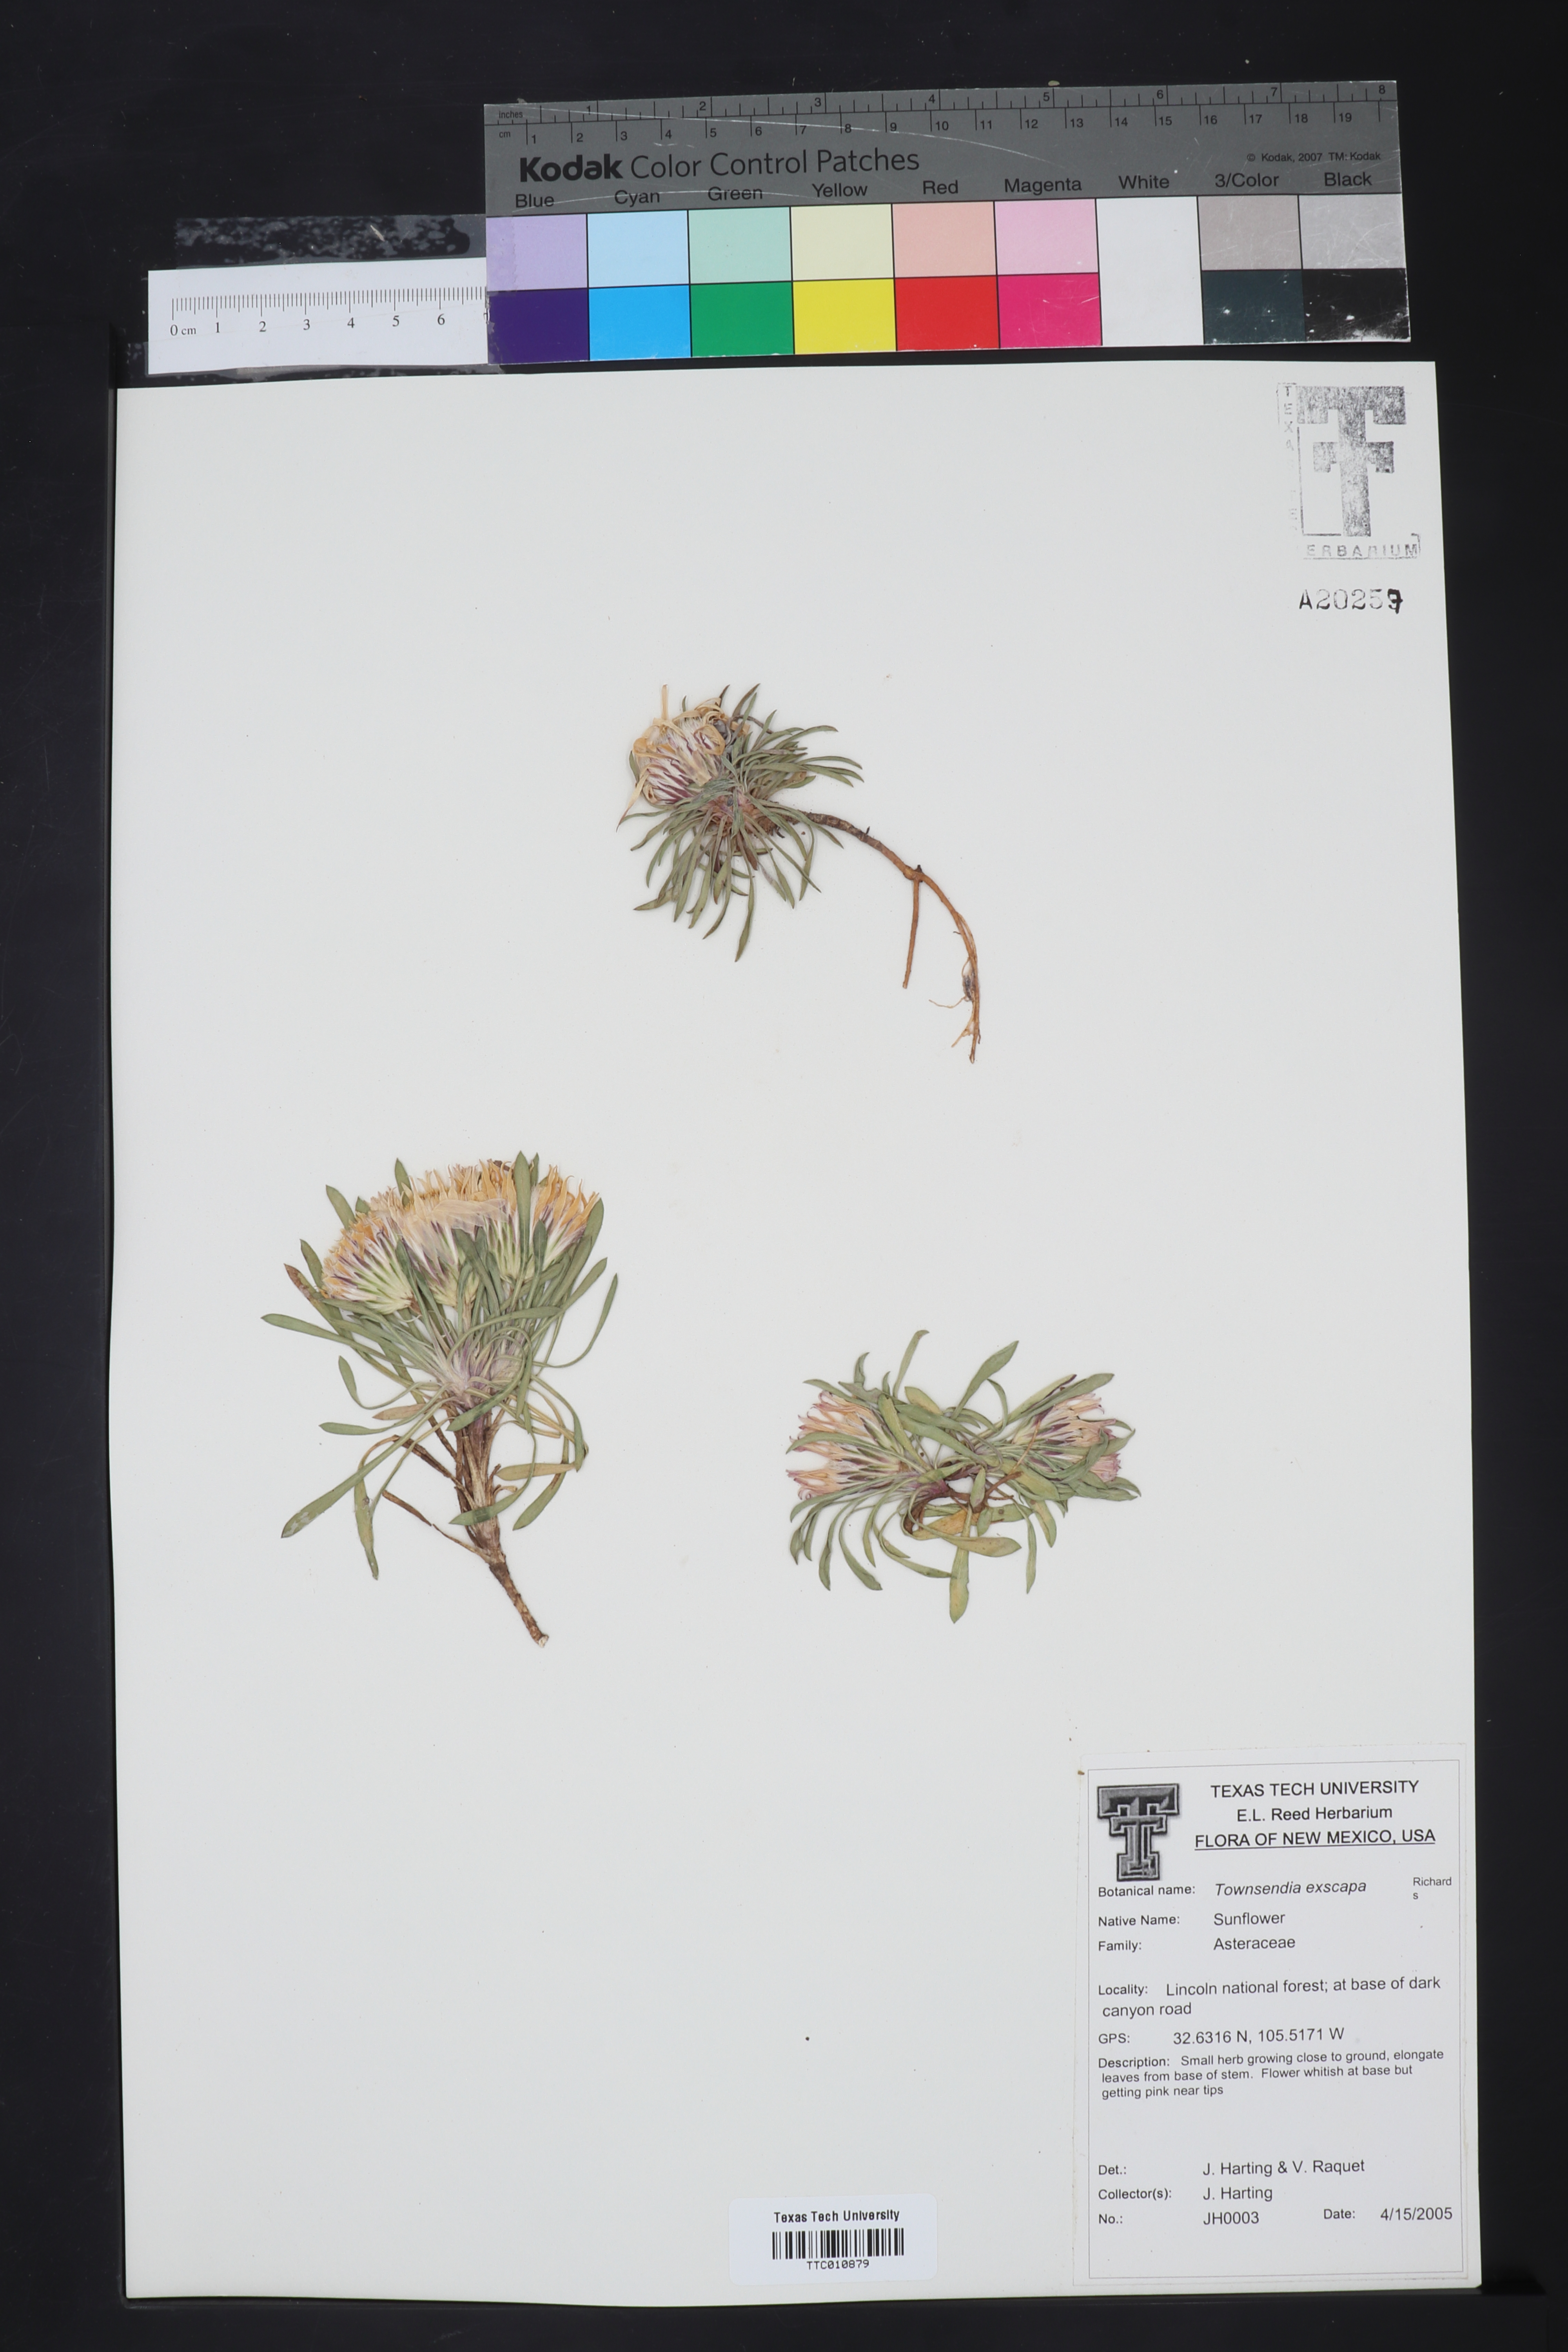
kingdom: Plantae
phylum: Tracheophyta
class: Magnoliopsida
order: Asterales
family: Asteraceae
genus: Townsendia
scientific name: Townsendia exscapa
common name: Dwarf townsendia
